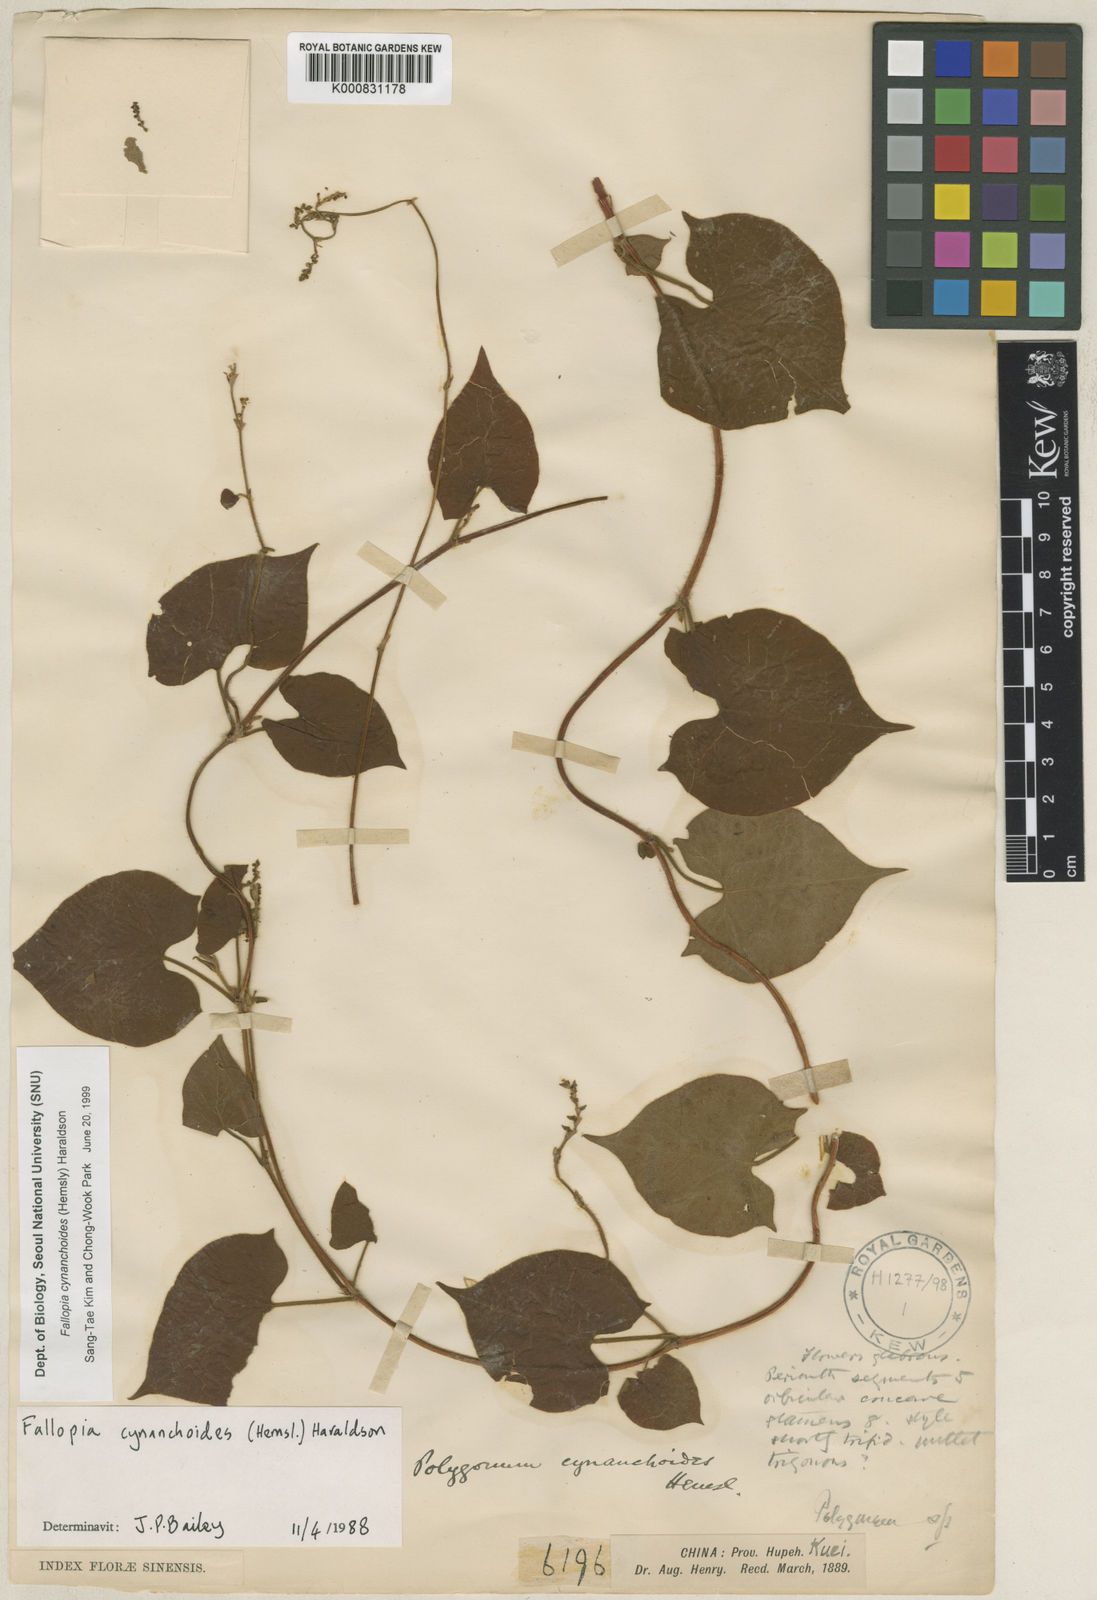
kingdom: Plantae
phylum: Tracheophyta
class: Magnoliopsida
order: Caryophyllales
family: Polygonaceae
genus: Parogonum
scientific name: Parogonum cynanchoides
